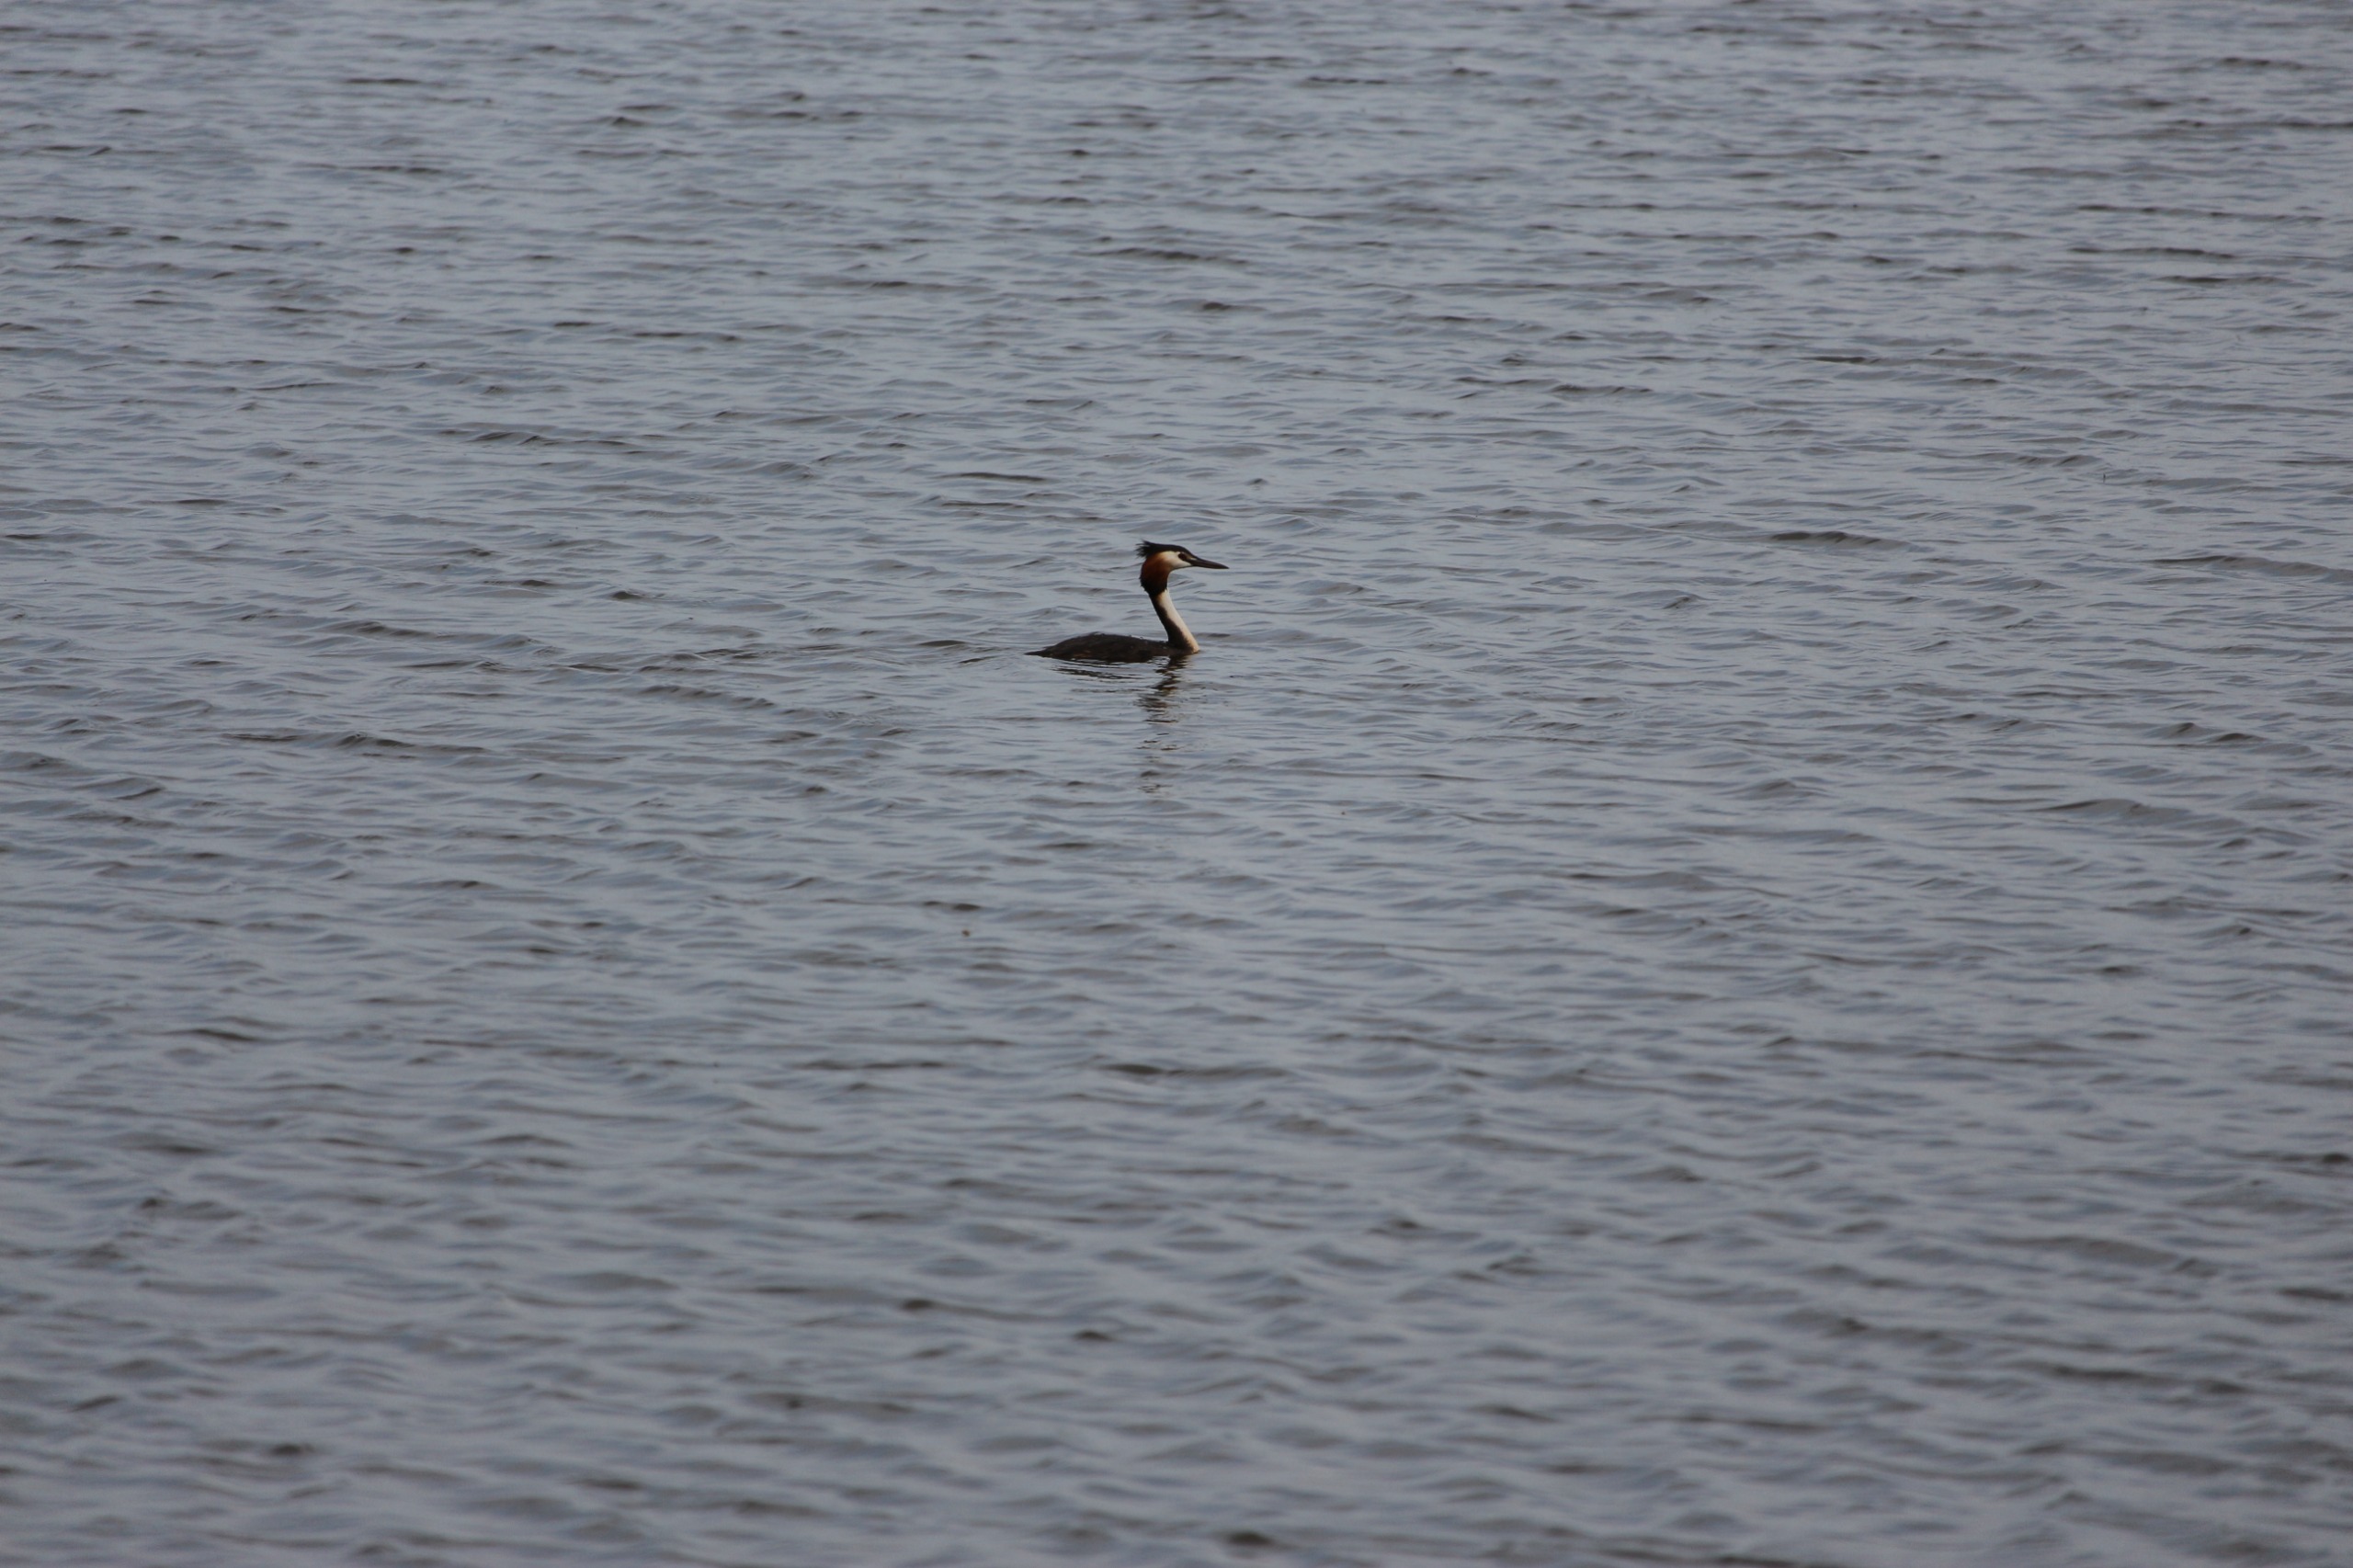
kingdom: Animalia
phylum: Chordata
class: Aves
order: Podicipediformes
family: Podicipedidae
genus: Podiceps
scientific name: Podiceps cristatus
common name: Toppet lappedykker
